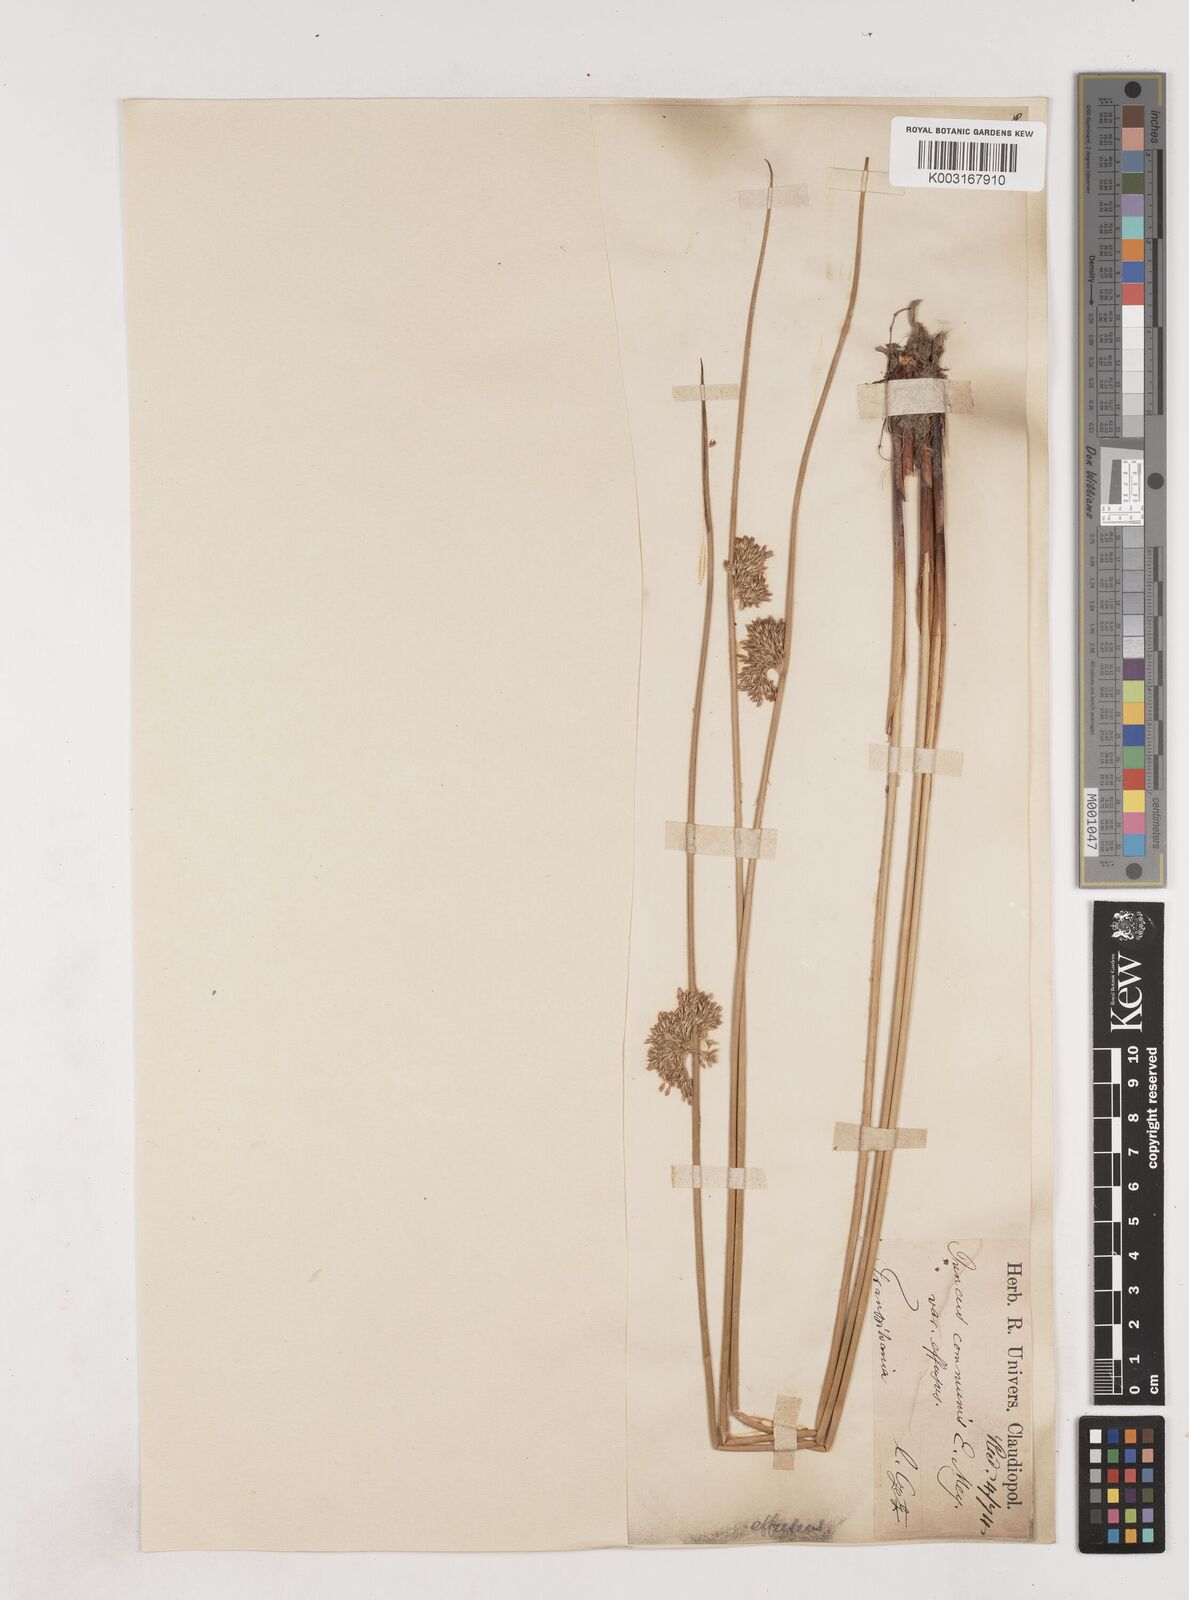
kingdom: Plantae
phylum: Tracheophyta
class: Liliopsida
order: Poales
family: Juncaceae
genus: Juncus
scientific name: Juncus effusus
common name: Soft rush
